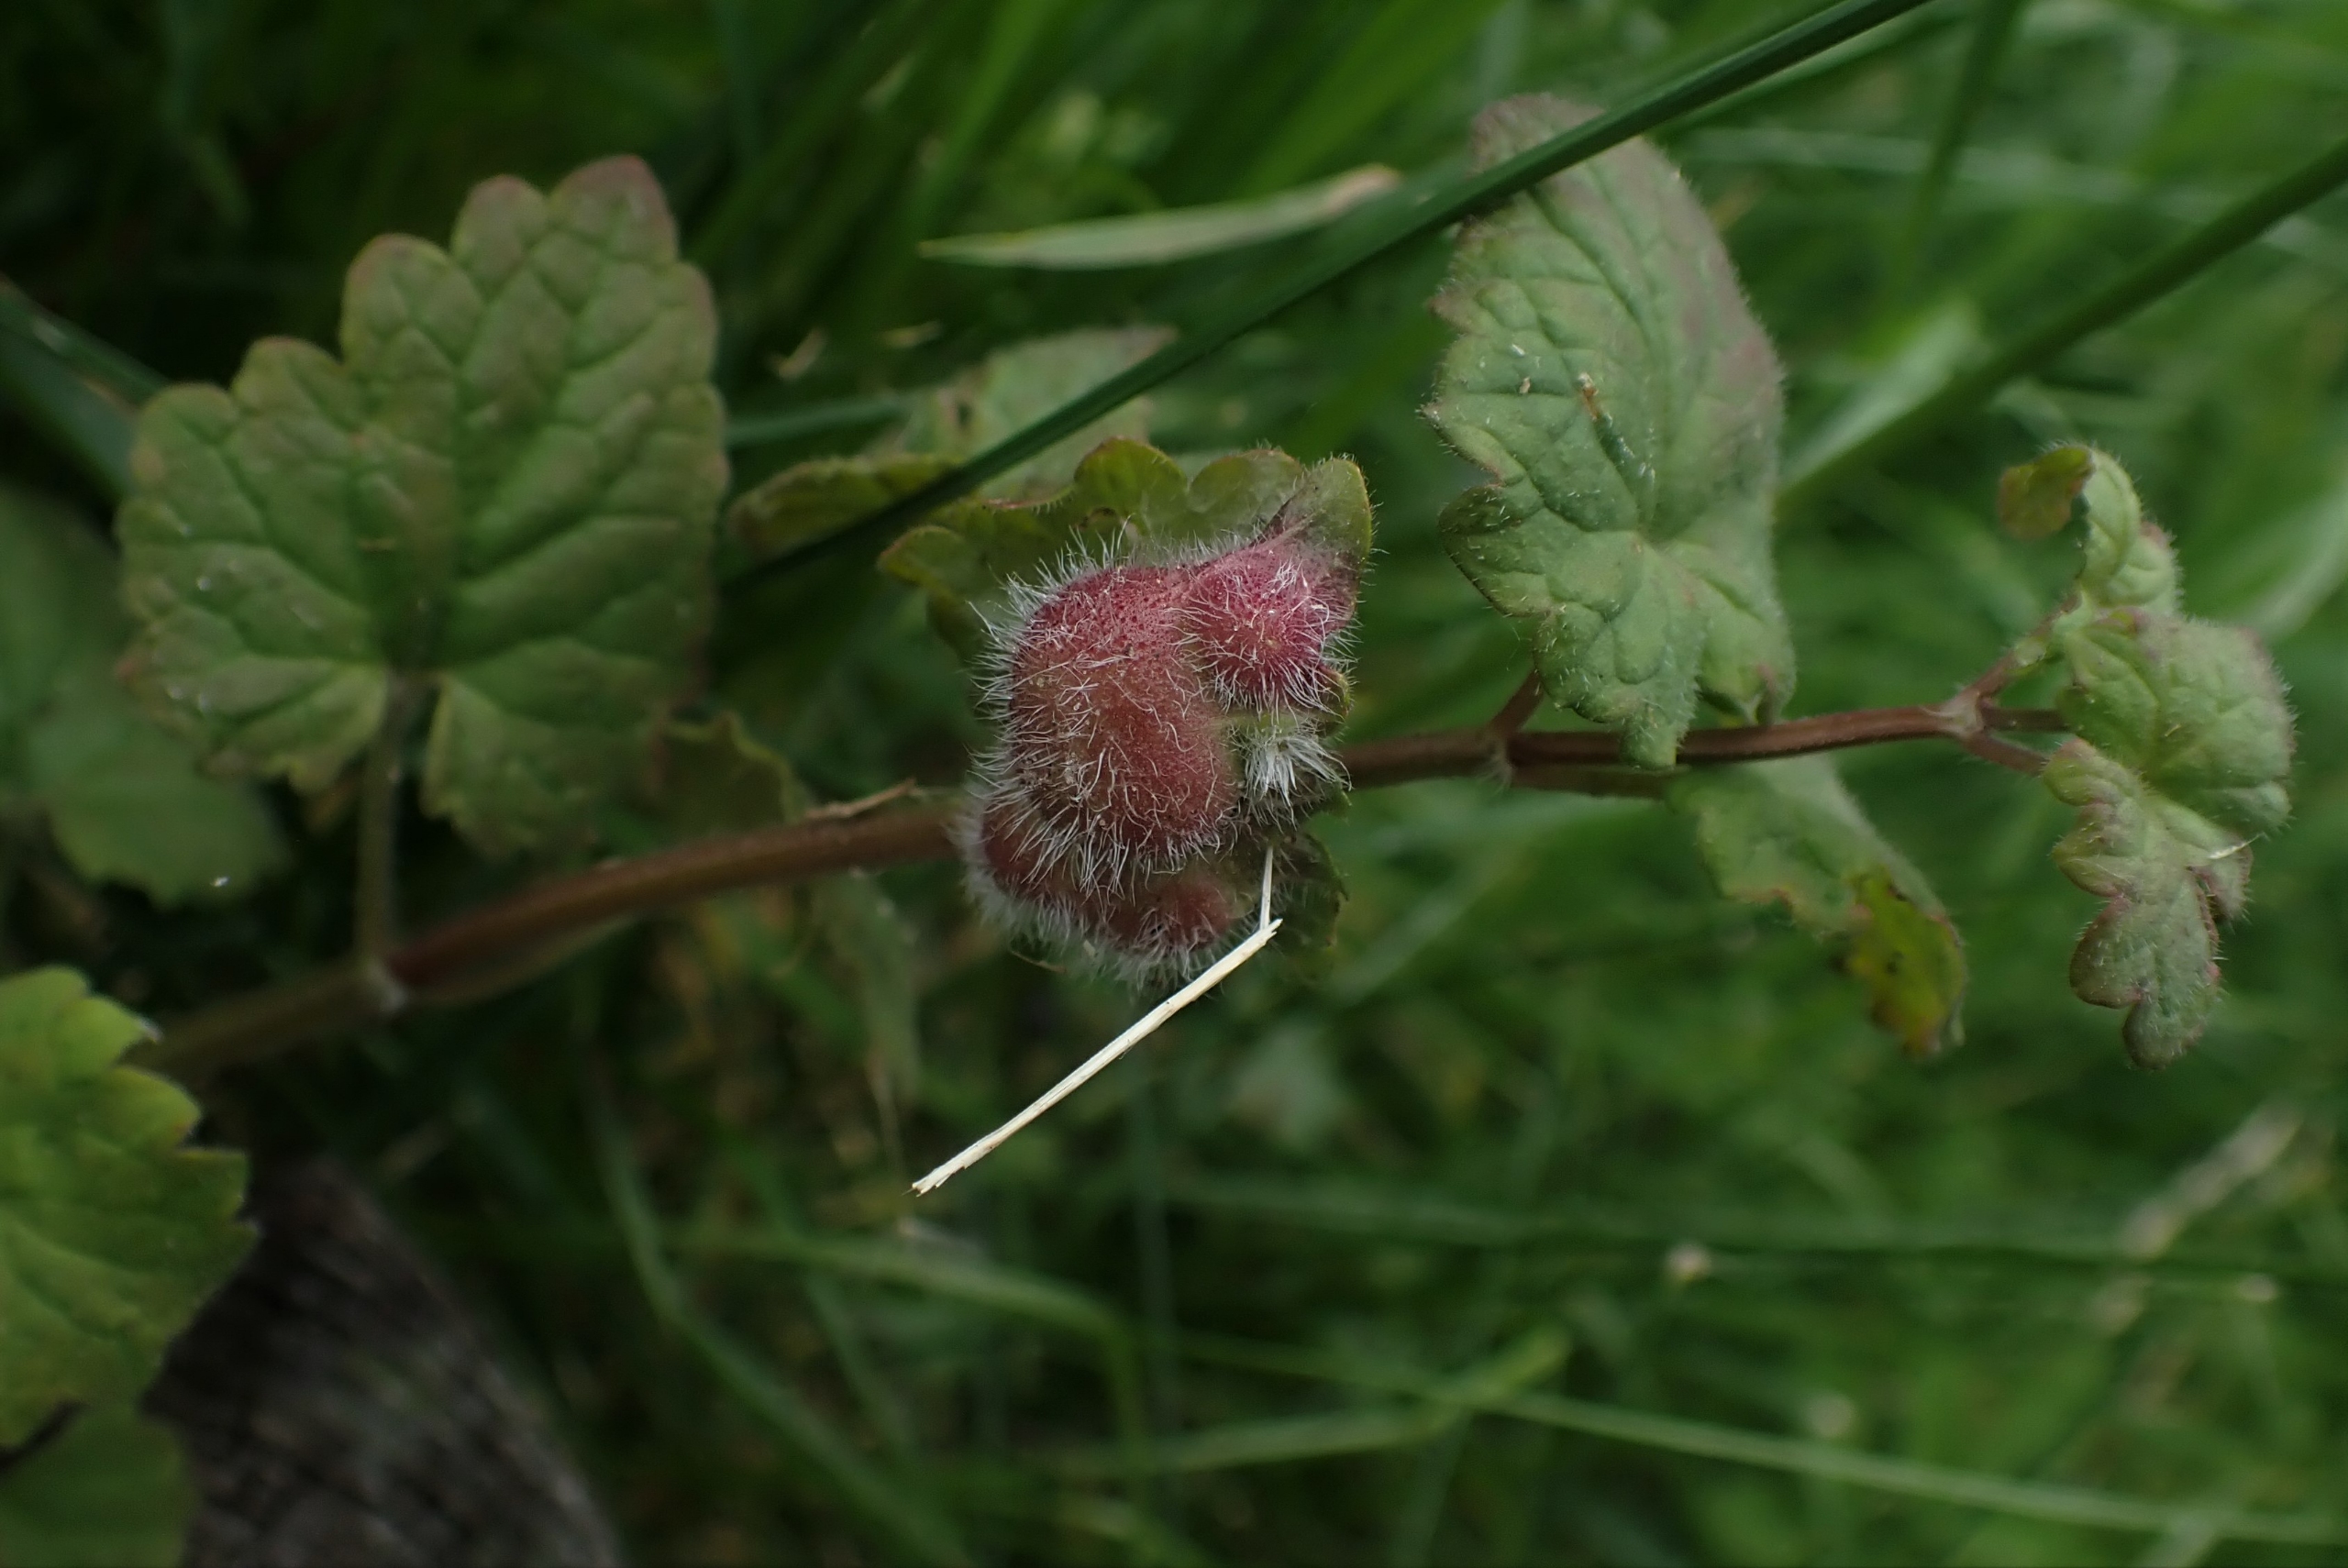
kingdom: Animalia
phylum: Arthropoda
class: Insecta
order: Hymenoptera
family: Cynipidae
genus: Liposthenes
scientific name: Liposthenes glechomae
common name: Korsknapgalhveps
